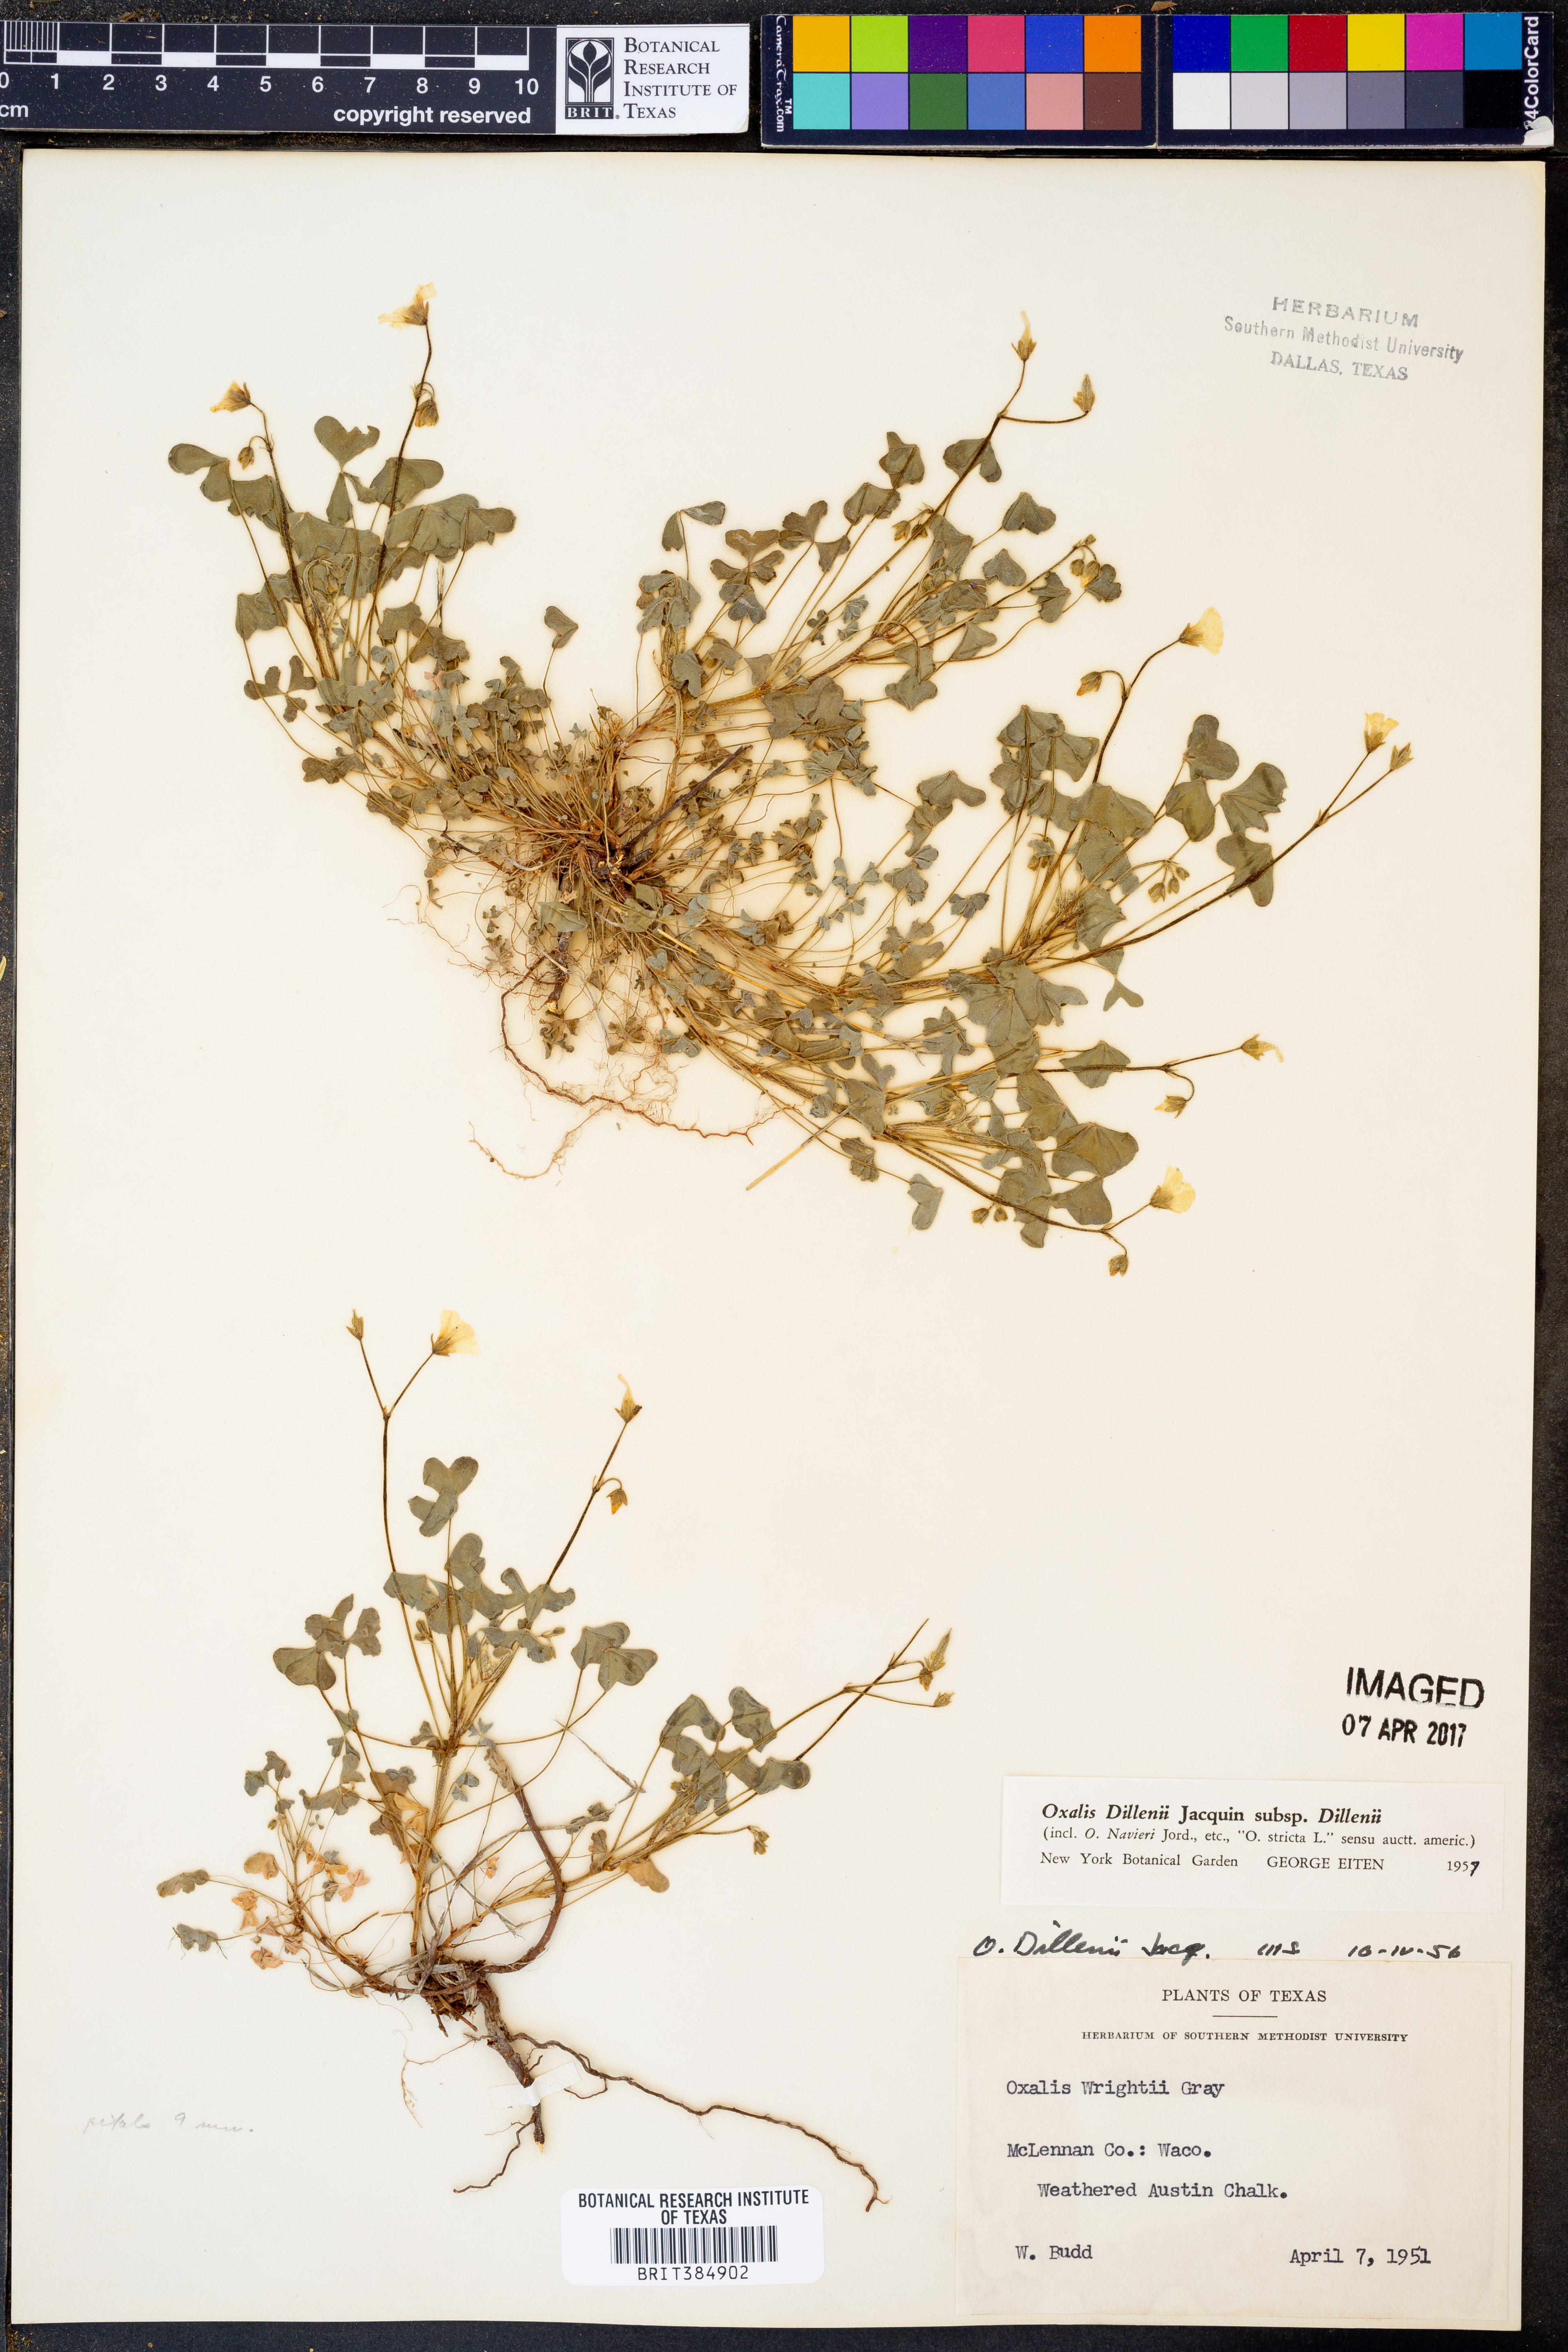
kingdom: Plantae
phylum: Tracheophyta
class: Magnoliopsida
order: Oxalidales
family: Oxalidaceae
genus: Oxalis
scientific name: Oxalis dillenii
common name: Sussex yellow-sorrel
